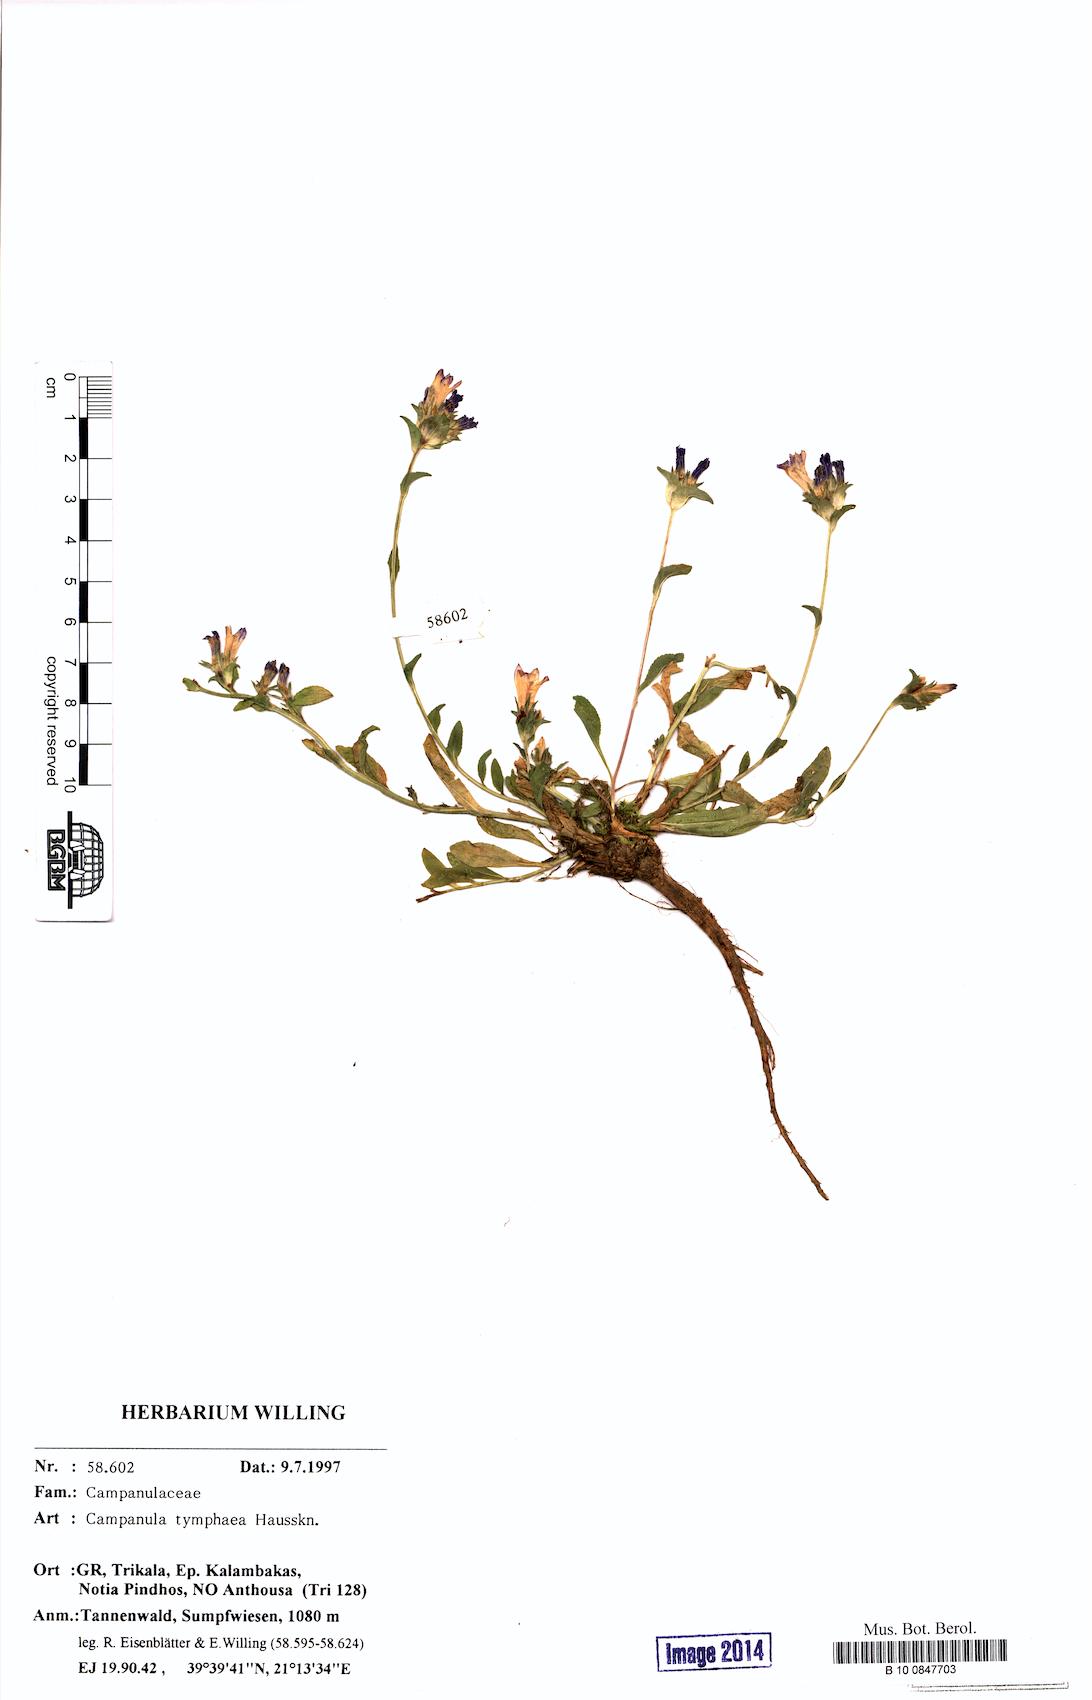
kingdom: Plantae
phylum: Tracheophyta
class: Magnoliopsida
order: Asterales
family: Campanulaceae
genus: Campanula
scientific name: Campanula tymphaea
